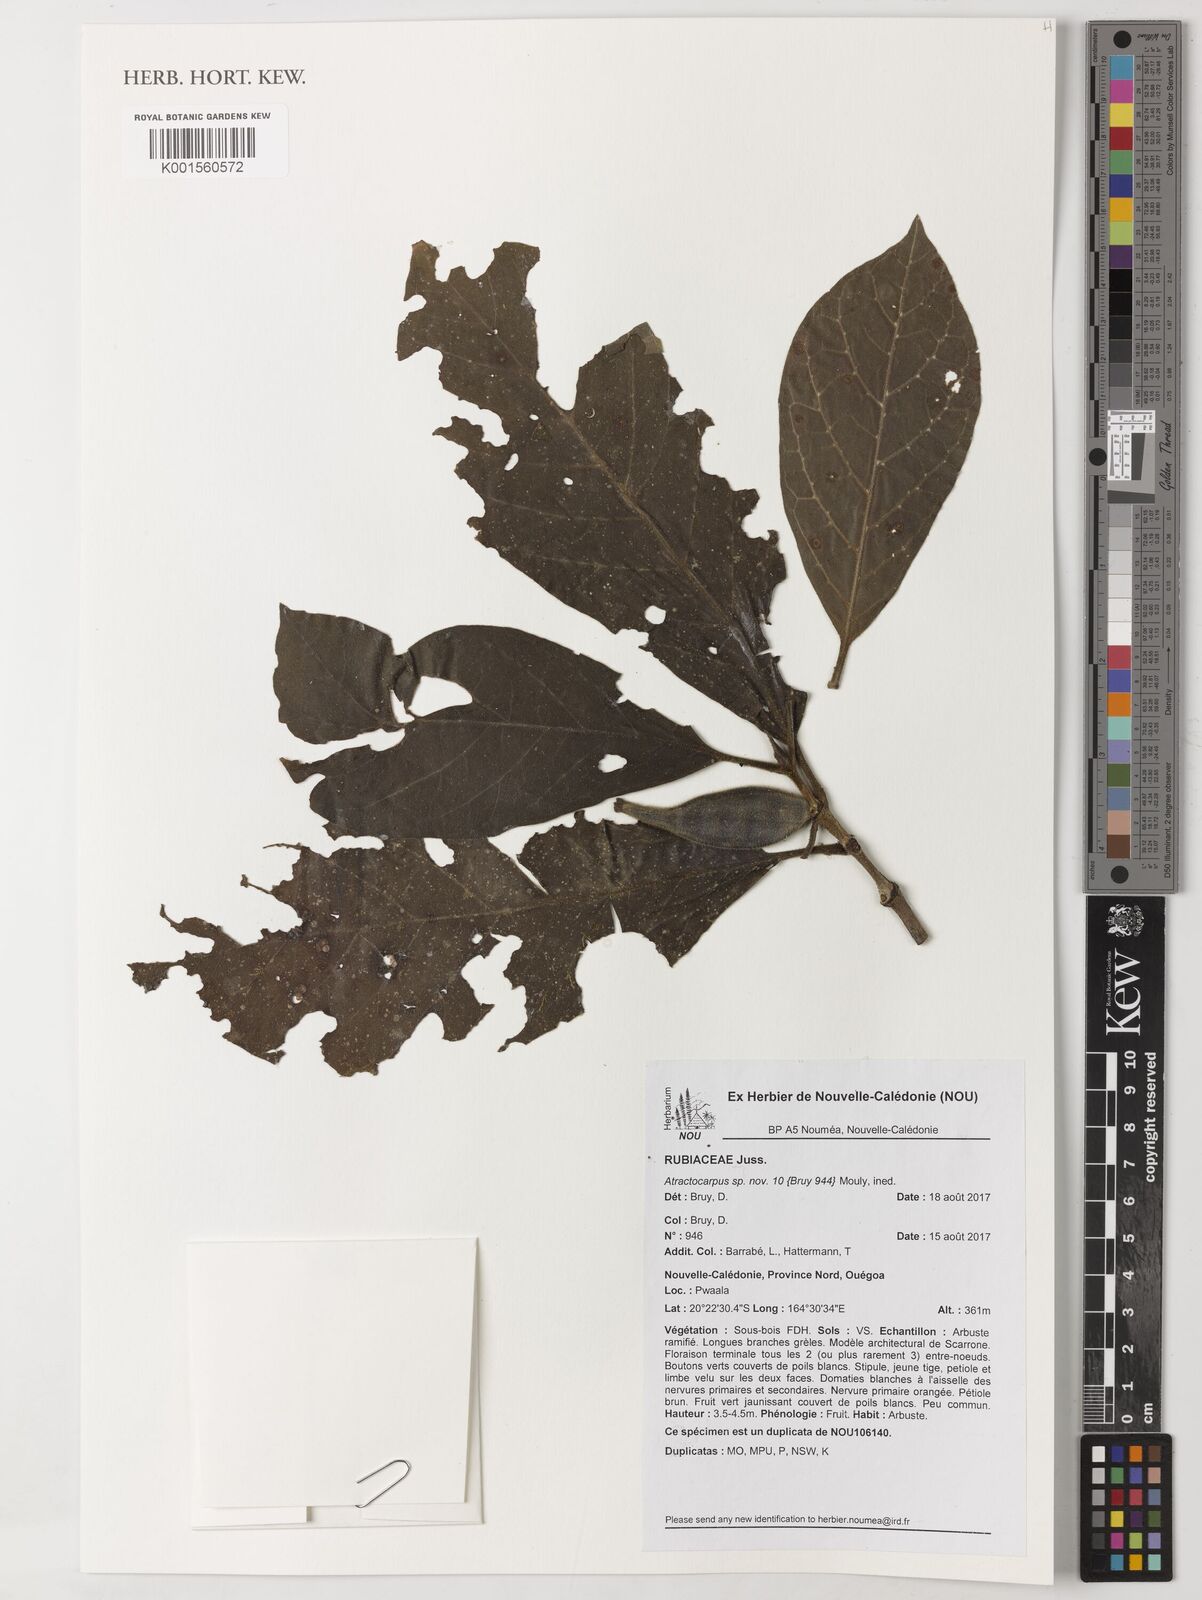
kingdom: Plantae
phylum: Tracheophyta
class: Magnoliopsida
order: Gentianales
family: Rubiaceae
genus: Atractocarpus
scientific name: Atractocarpus
